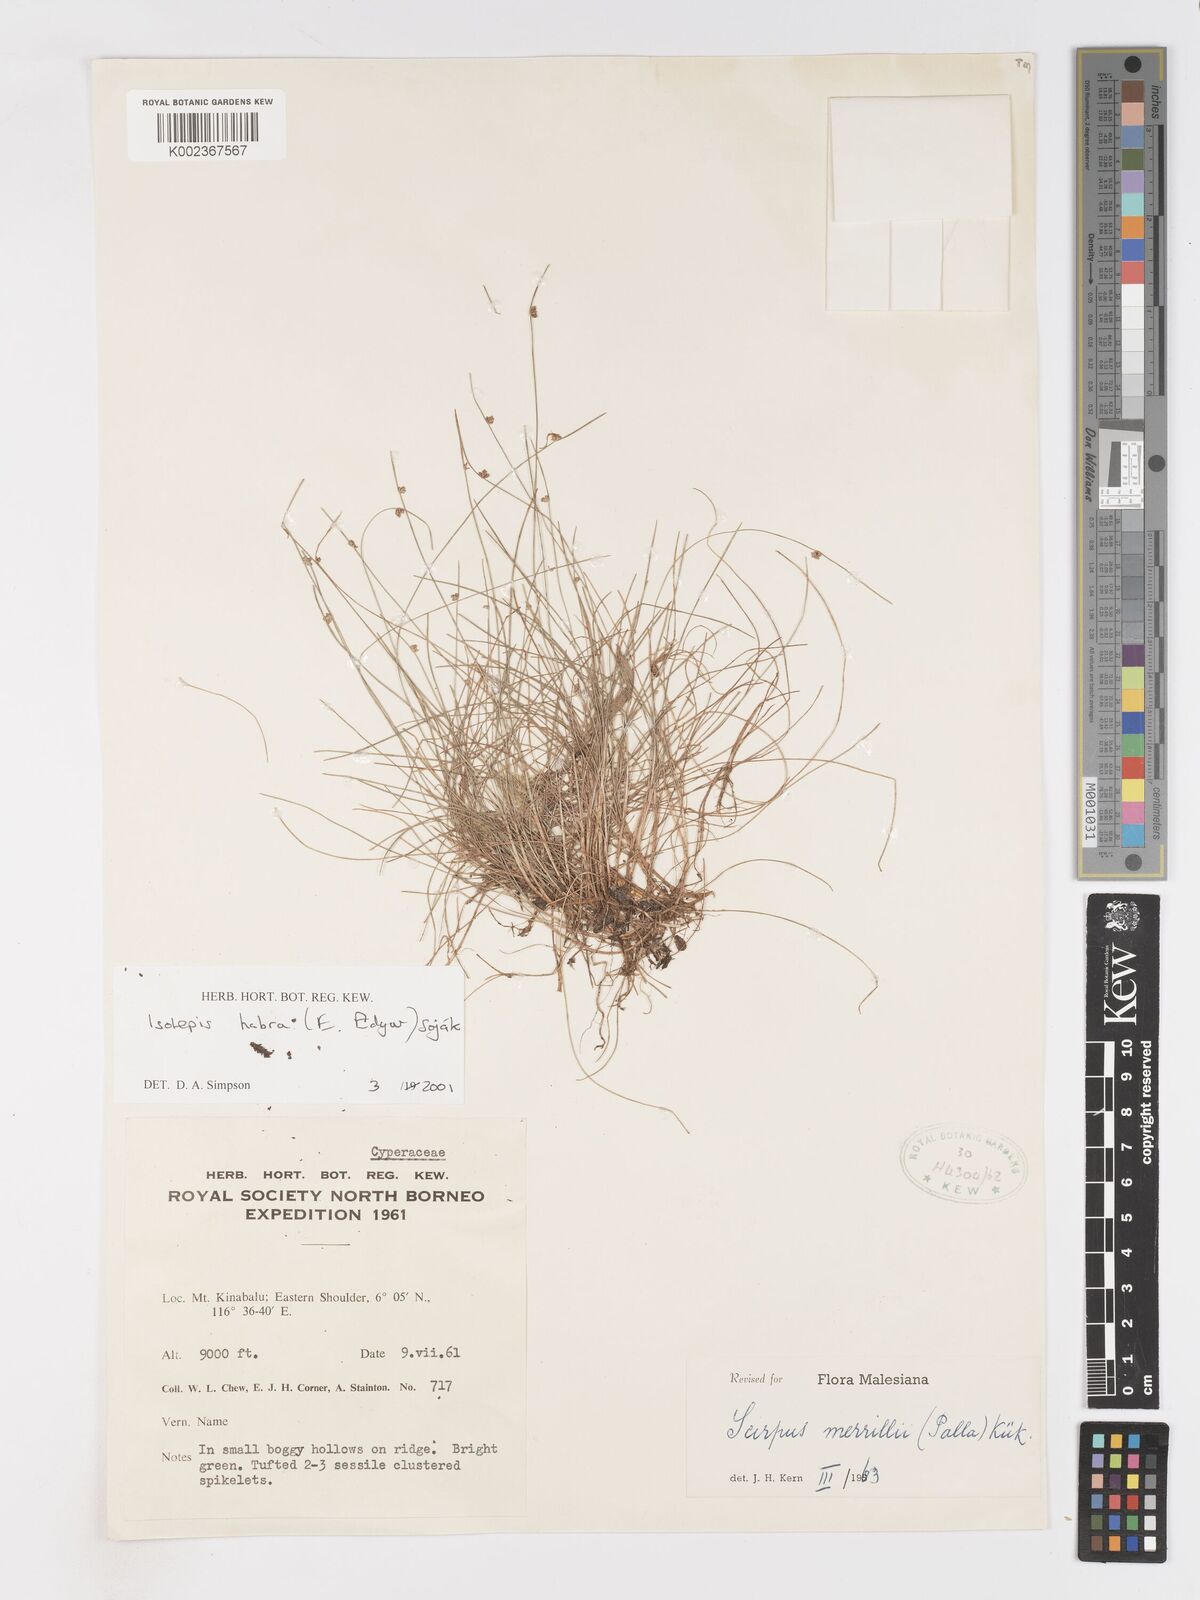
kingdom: Plantae
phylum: Tracheophyta
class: Liliopsida
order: Poales
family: Cyperaceae
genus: Isolepis
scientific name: Isolepis habra
